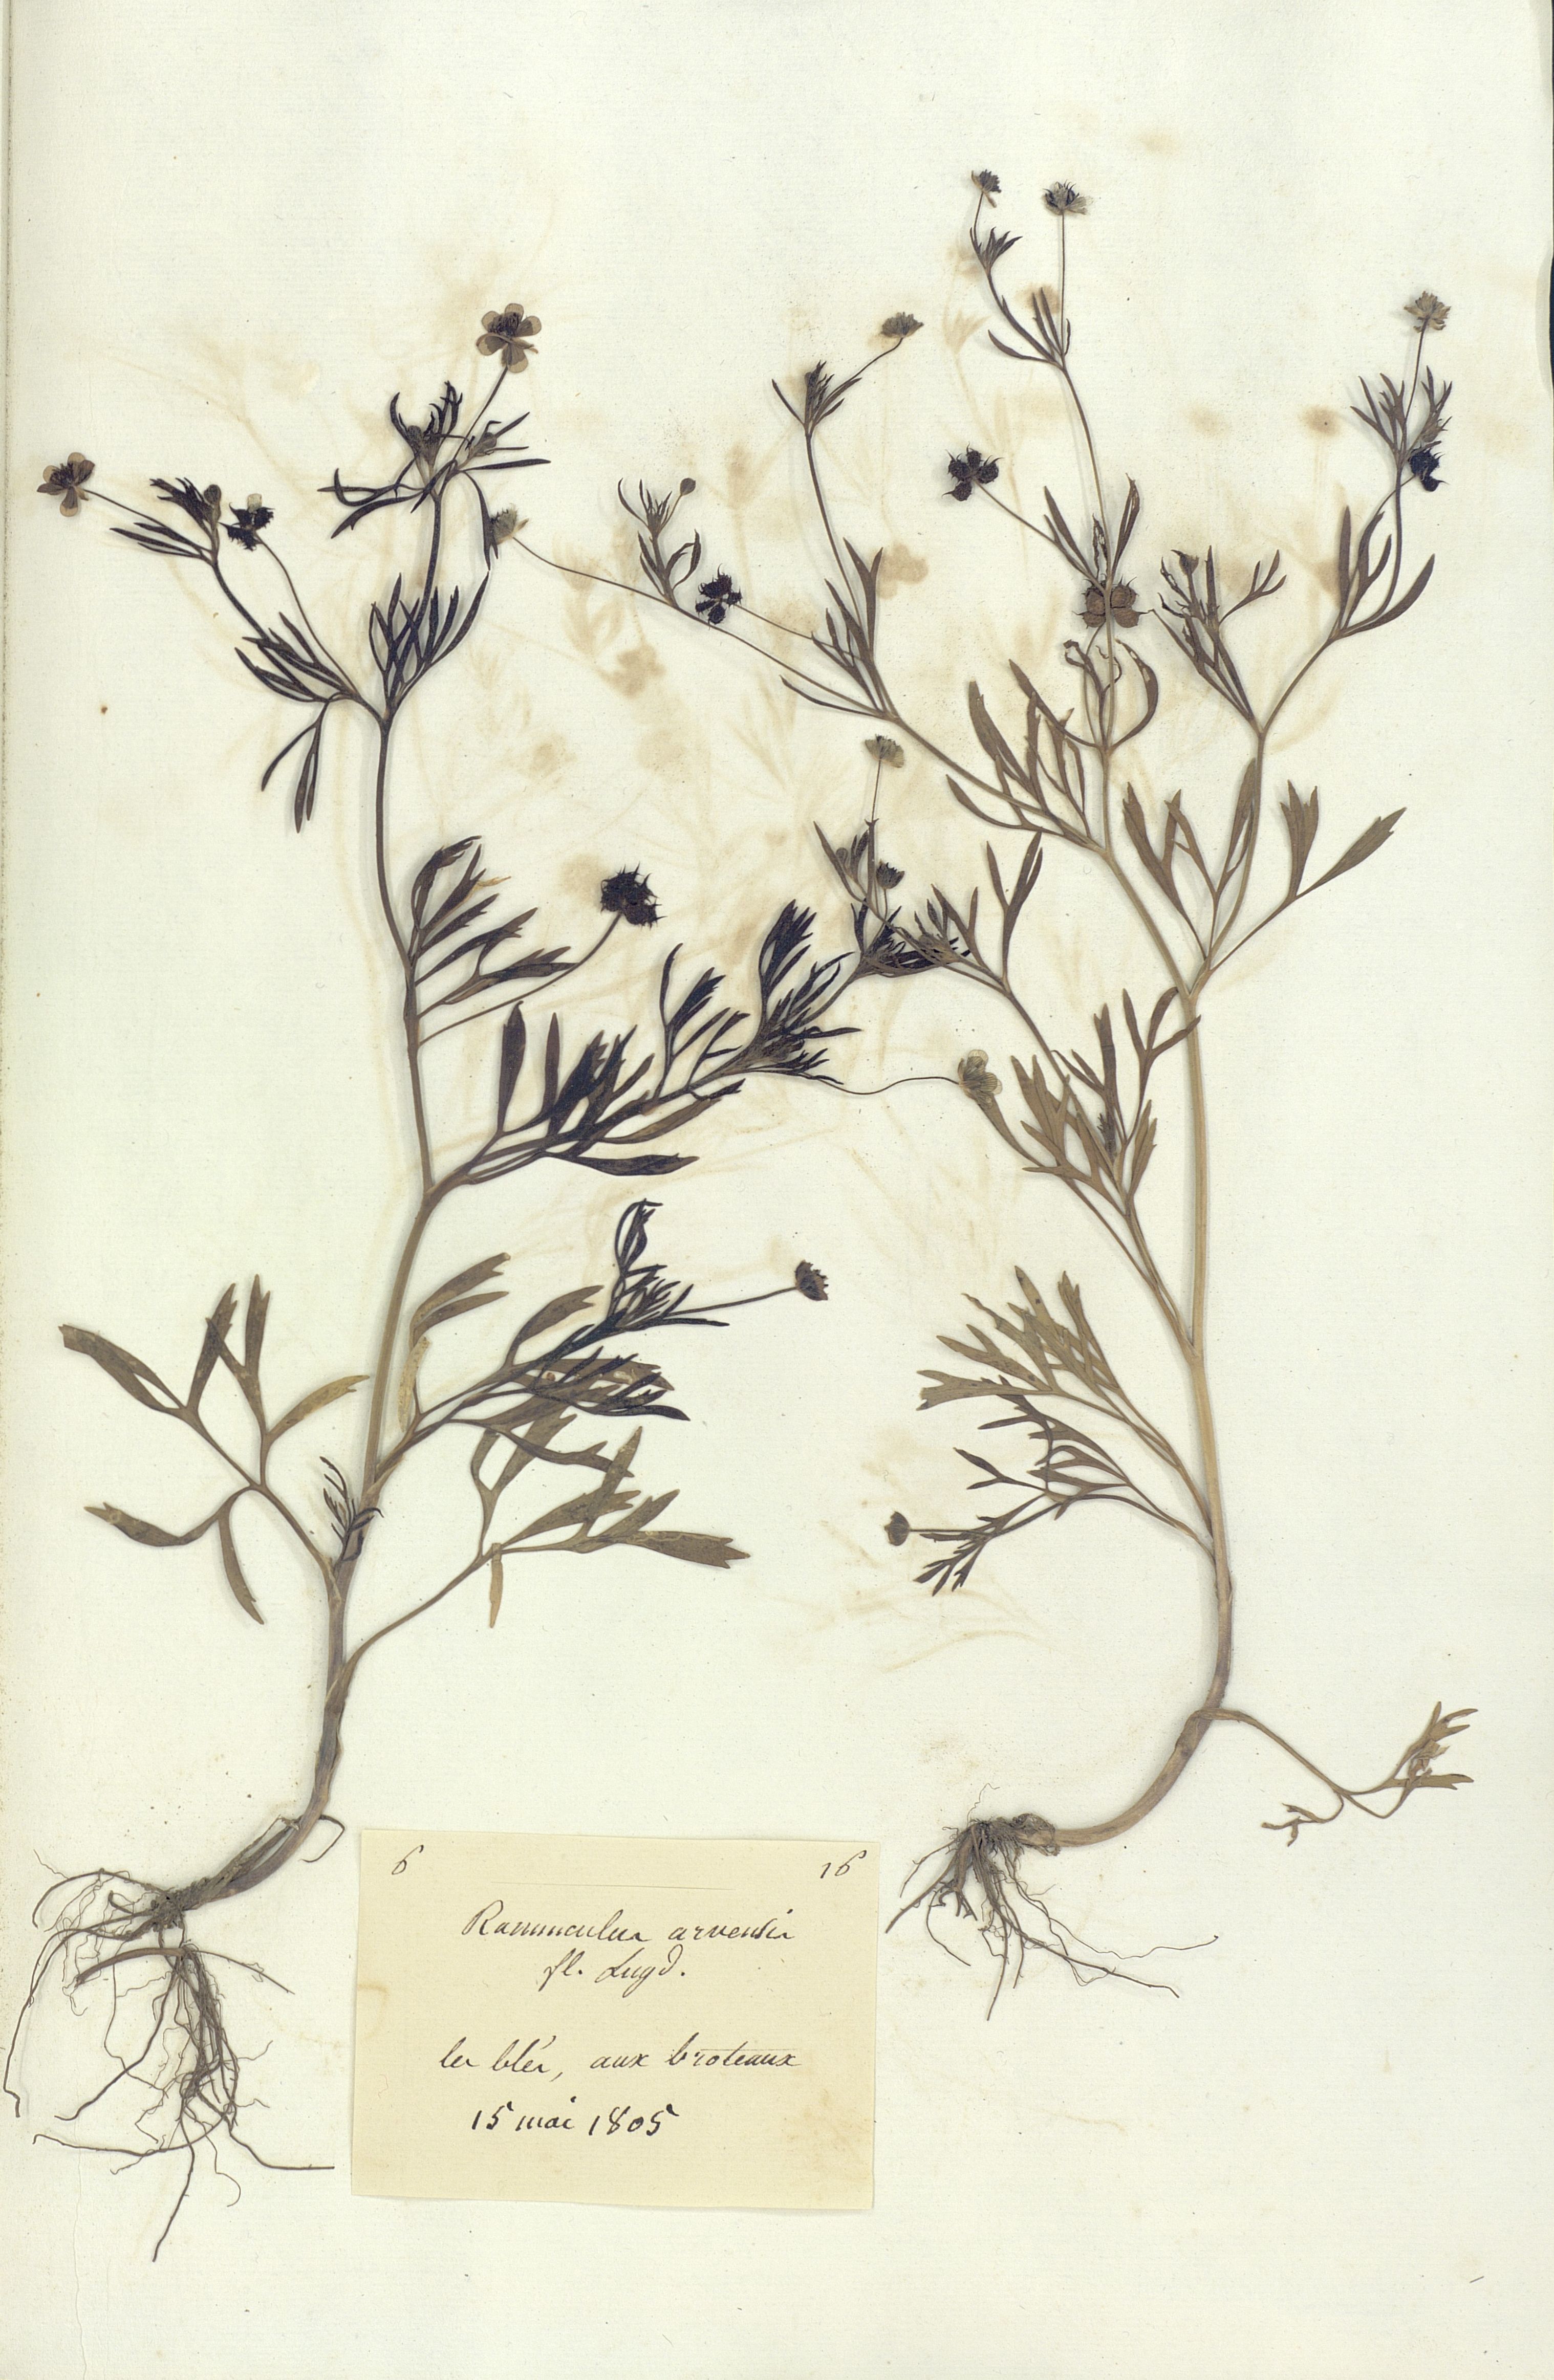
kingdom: Plantae
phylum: Tracheophyta
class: Magnoliopsida
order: Ranunculales
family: Ranunculaceae
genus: Ranunculus
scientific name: Ranunculus arvensis
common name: Corn buttercup
